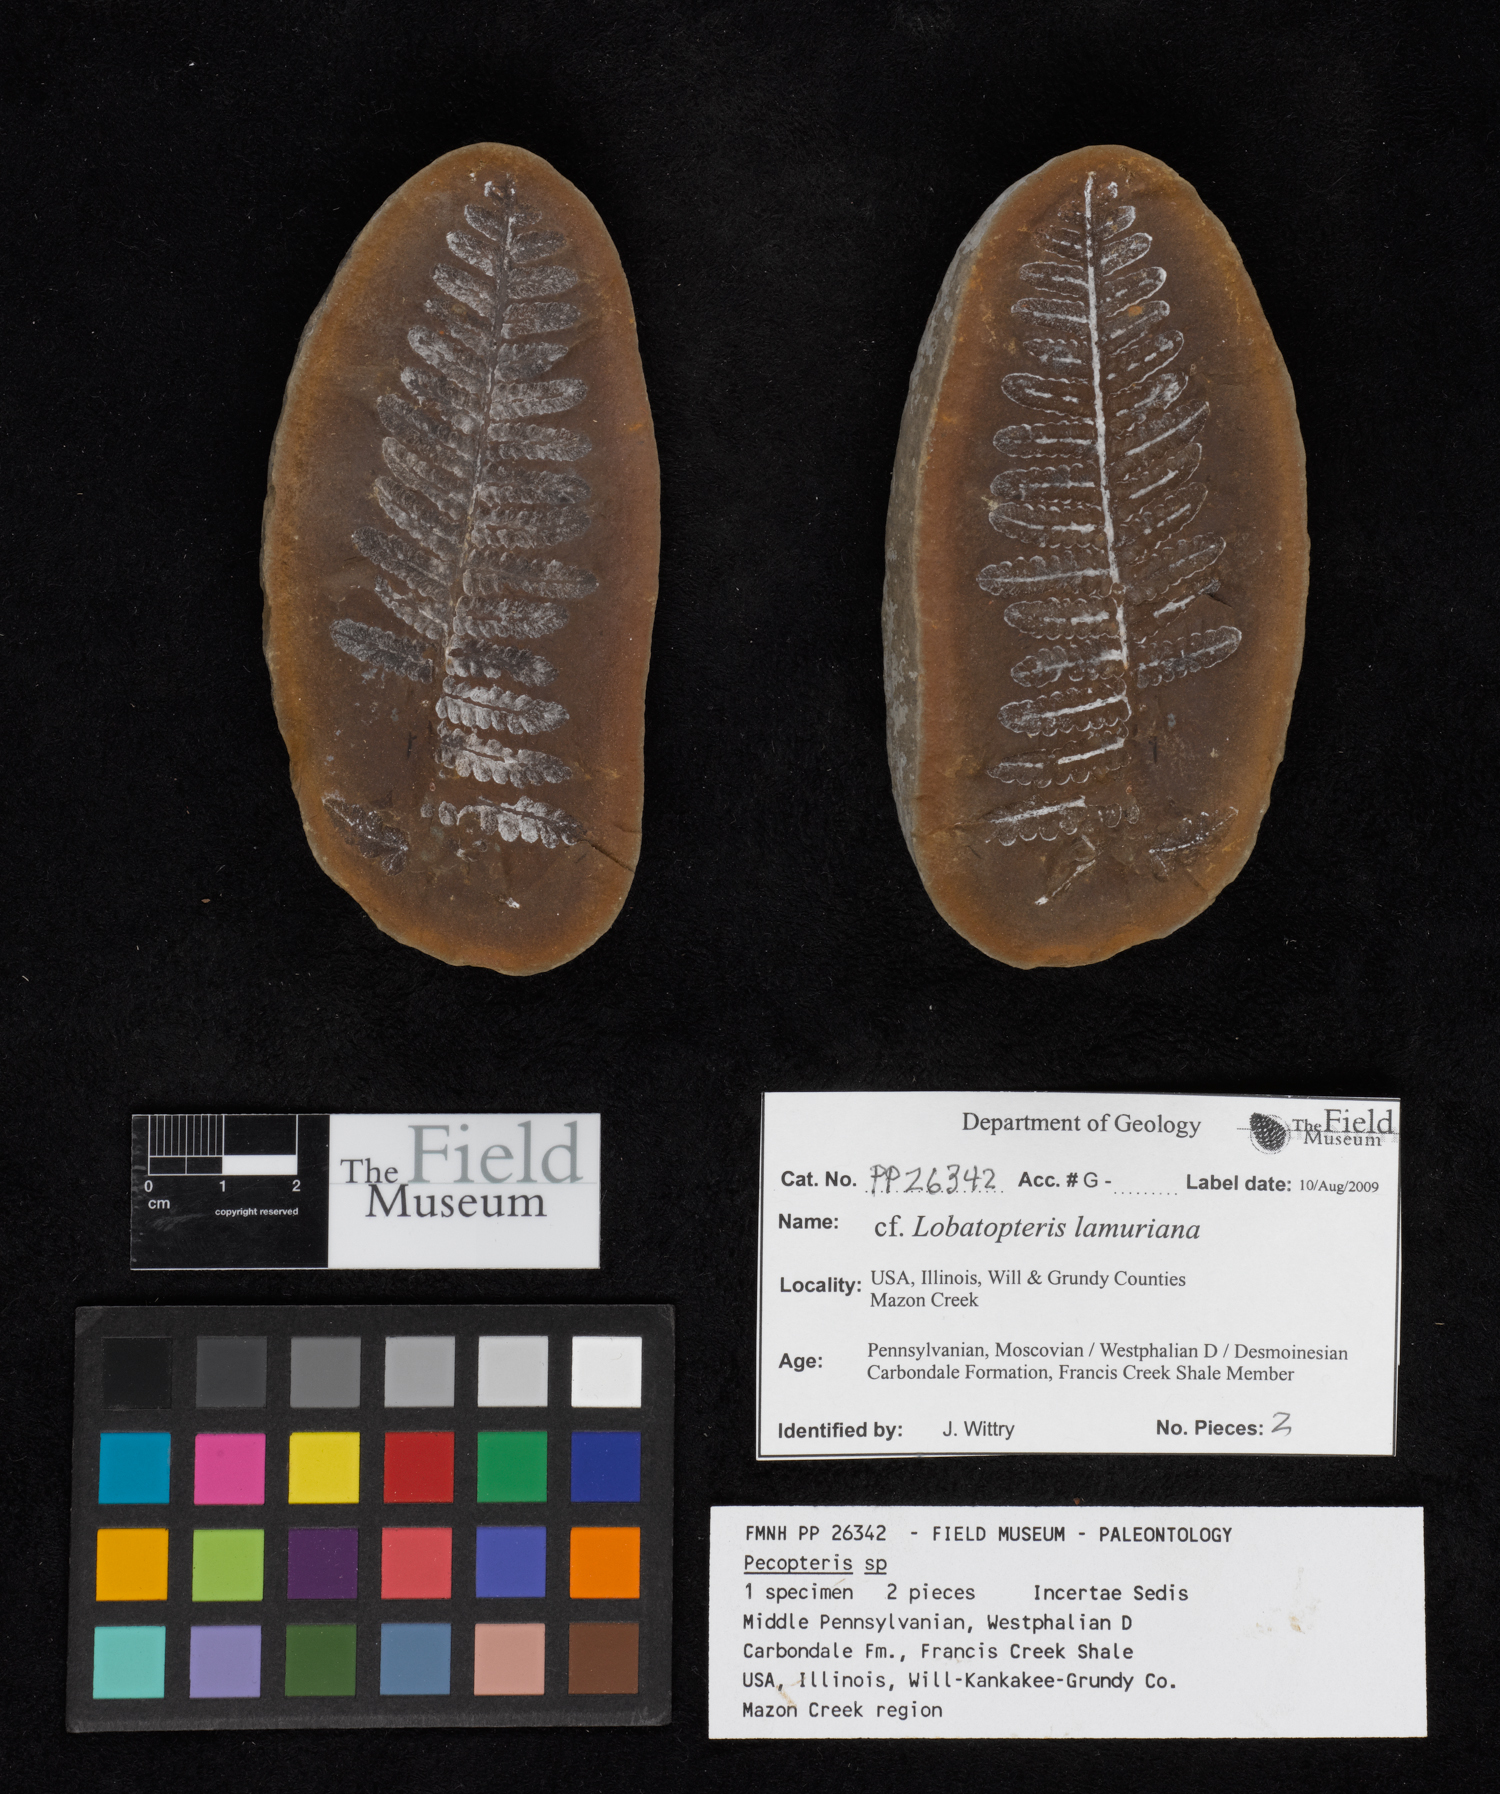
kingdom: Plantae
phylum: Tracheophyta
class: Polypodiopsida
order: Marattiales
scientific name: Marattiales
